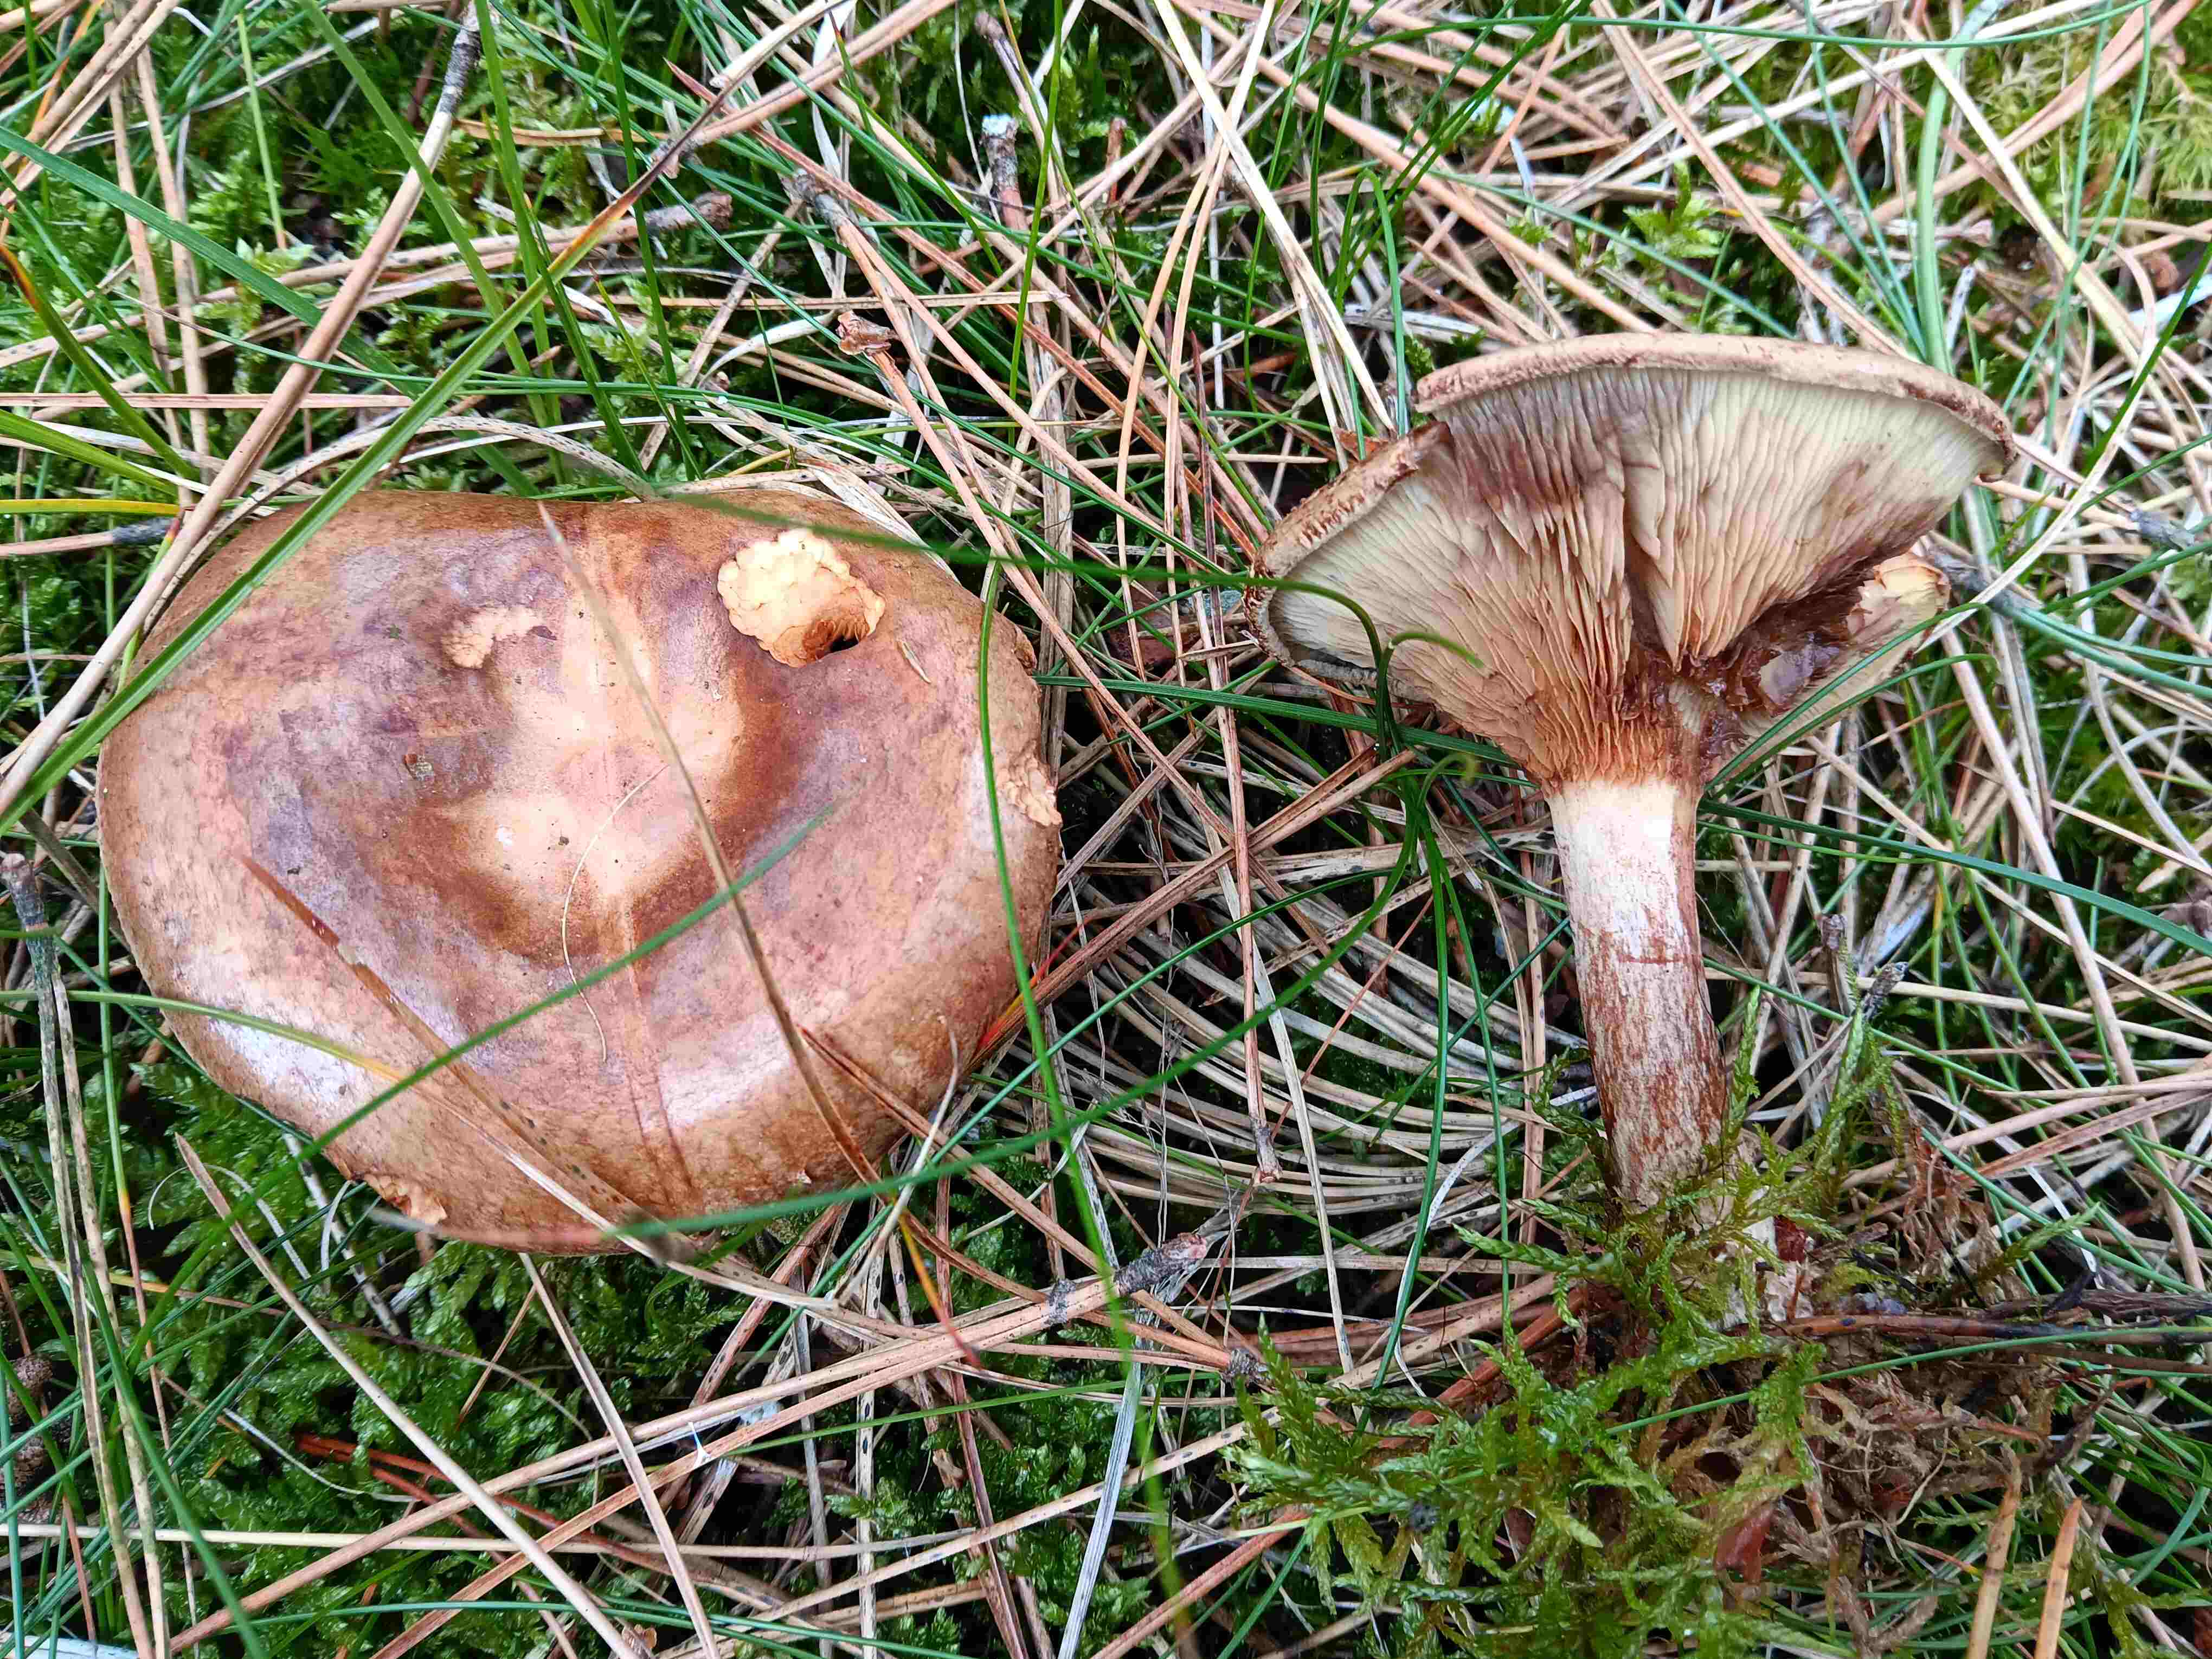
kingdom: Fungi
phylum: Basidiomycota
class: Agaricomycetes
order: Boletales
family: Paxillaceae
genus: Paxillus
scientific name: Paxillus involutus
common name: almindelig netbladhat
